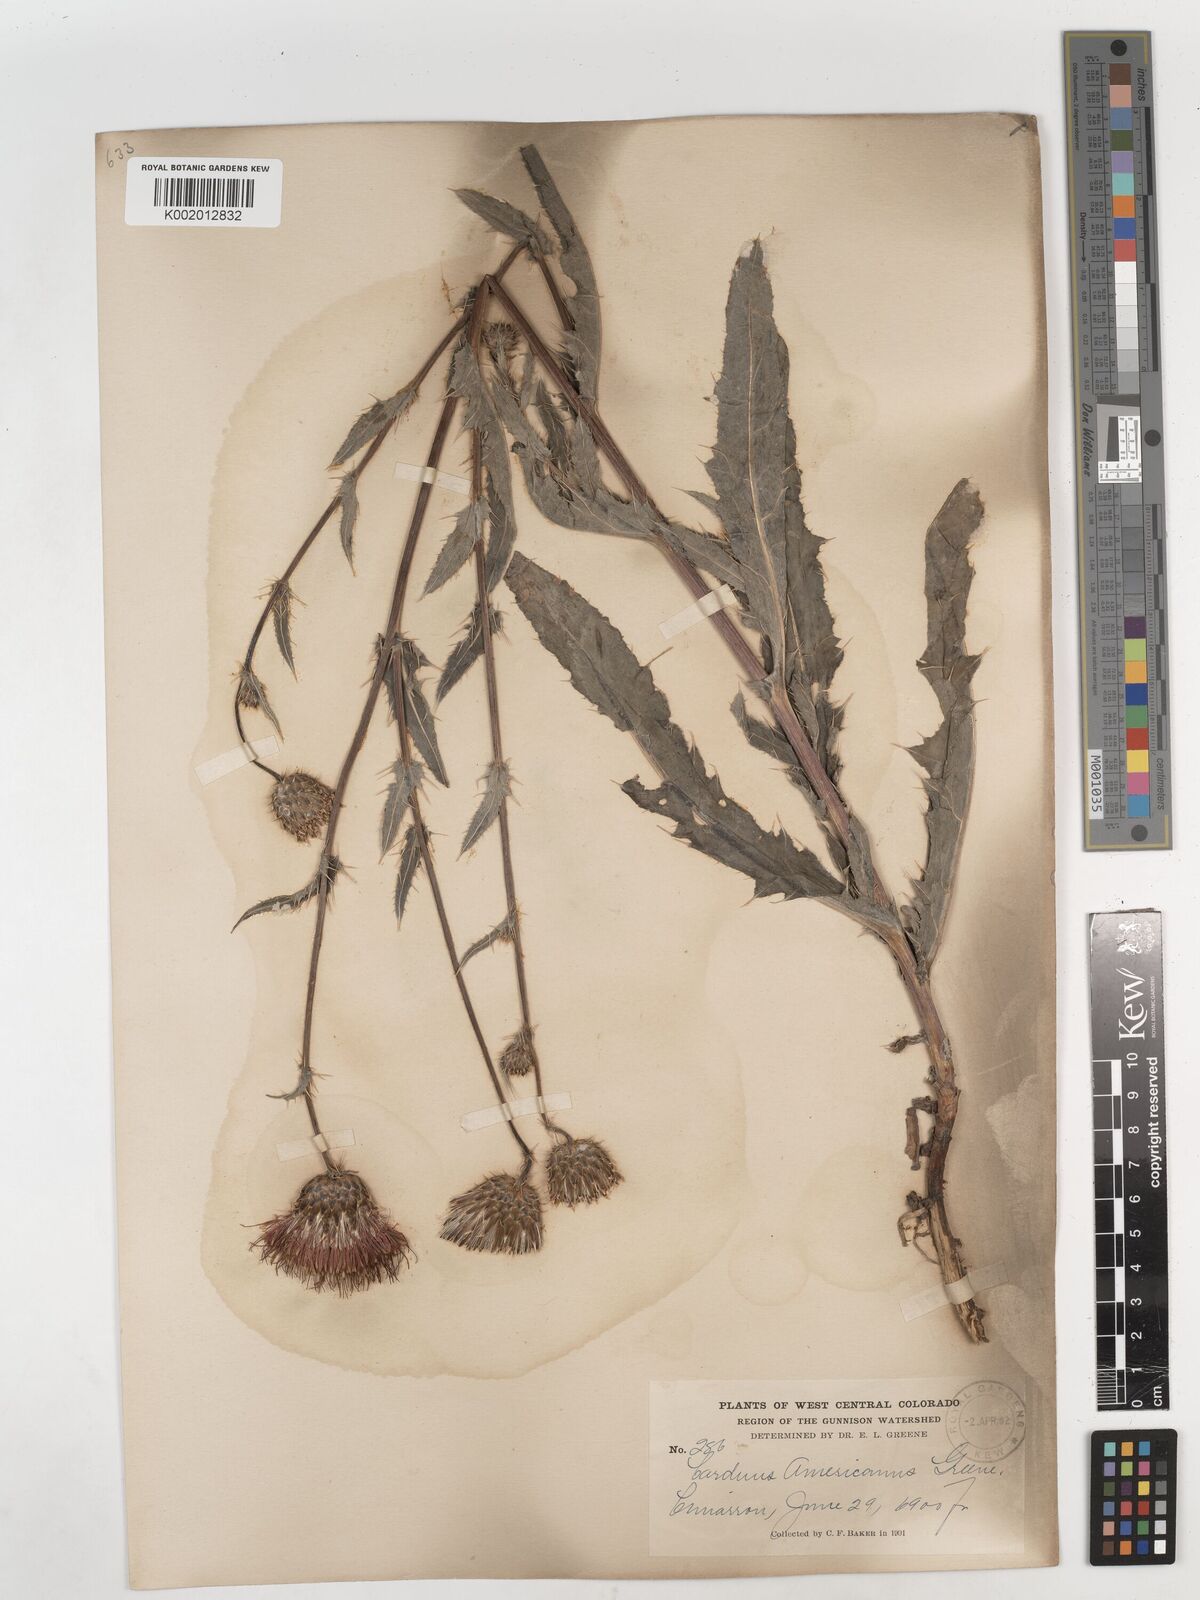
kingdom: Plantae
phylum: Tracheophyta
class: Magnoliopsida
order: Asterales
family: Asteraceae
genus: Cirsium
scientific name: Cirsium tioganum
